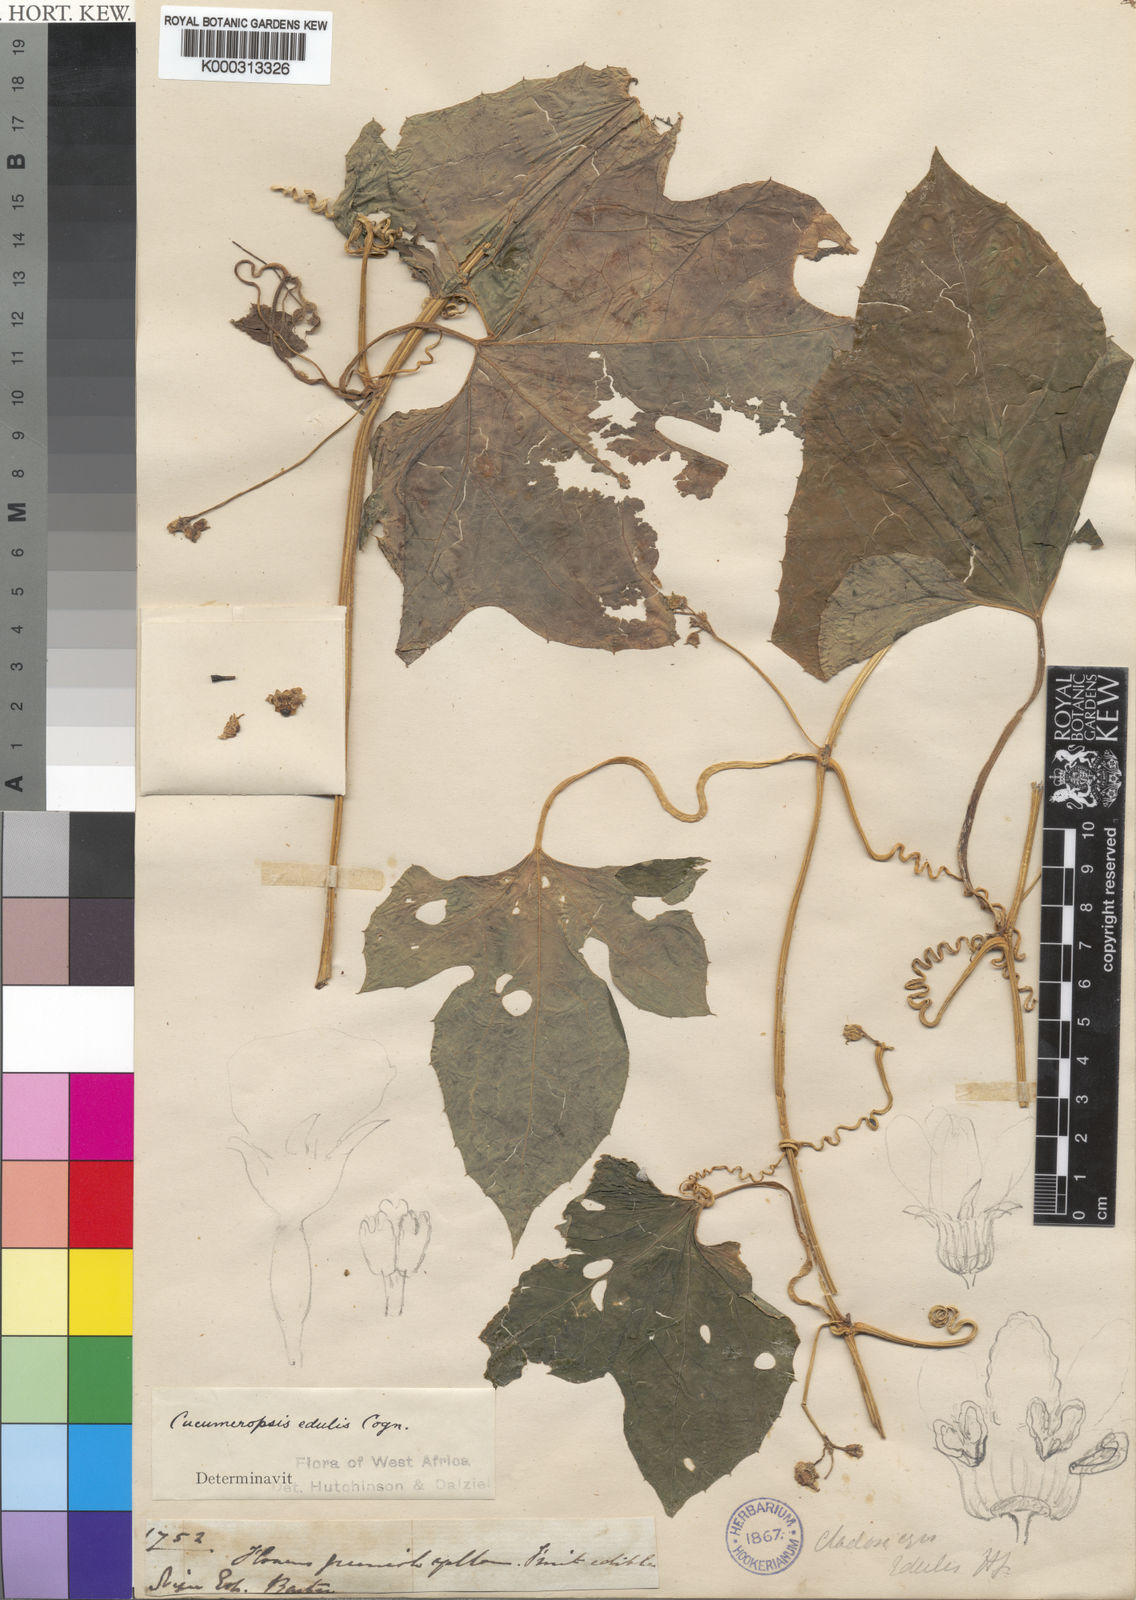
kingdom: Plantae
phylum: Tracheophyta
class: Magnoliopsida
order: Cucurbitales
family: Cucurbitaceae
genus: Melothria
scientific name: Melothria sphaerocarpa
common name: Egusi-itoo
